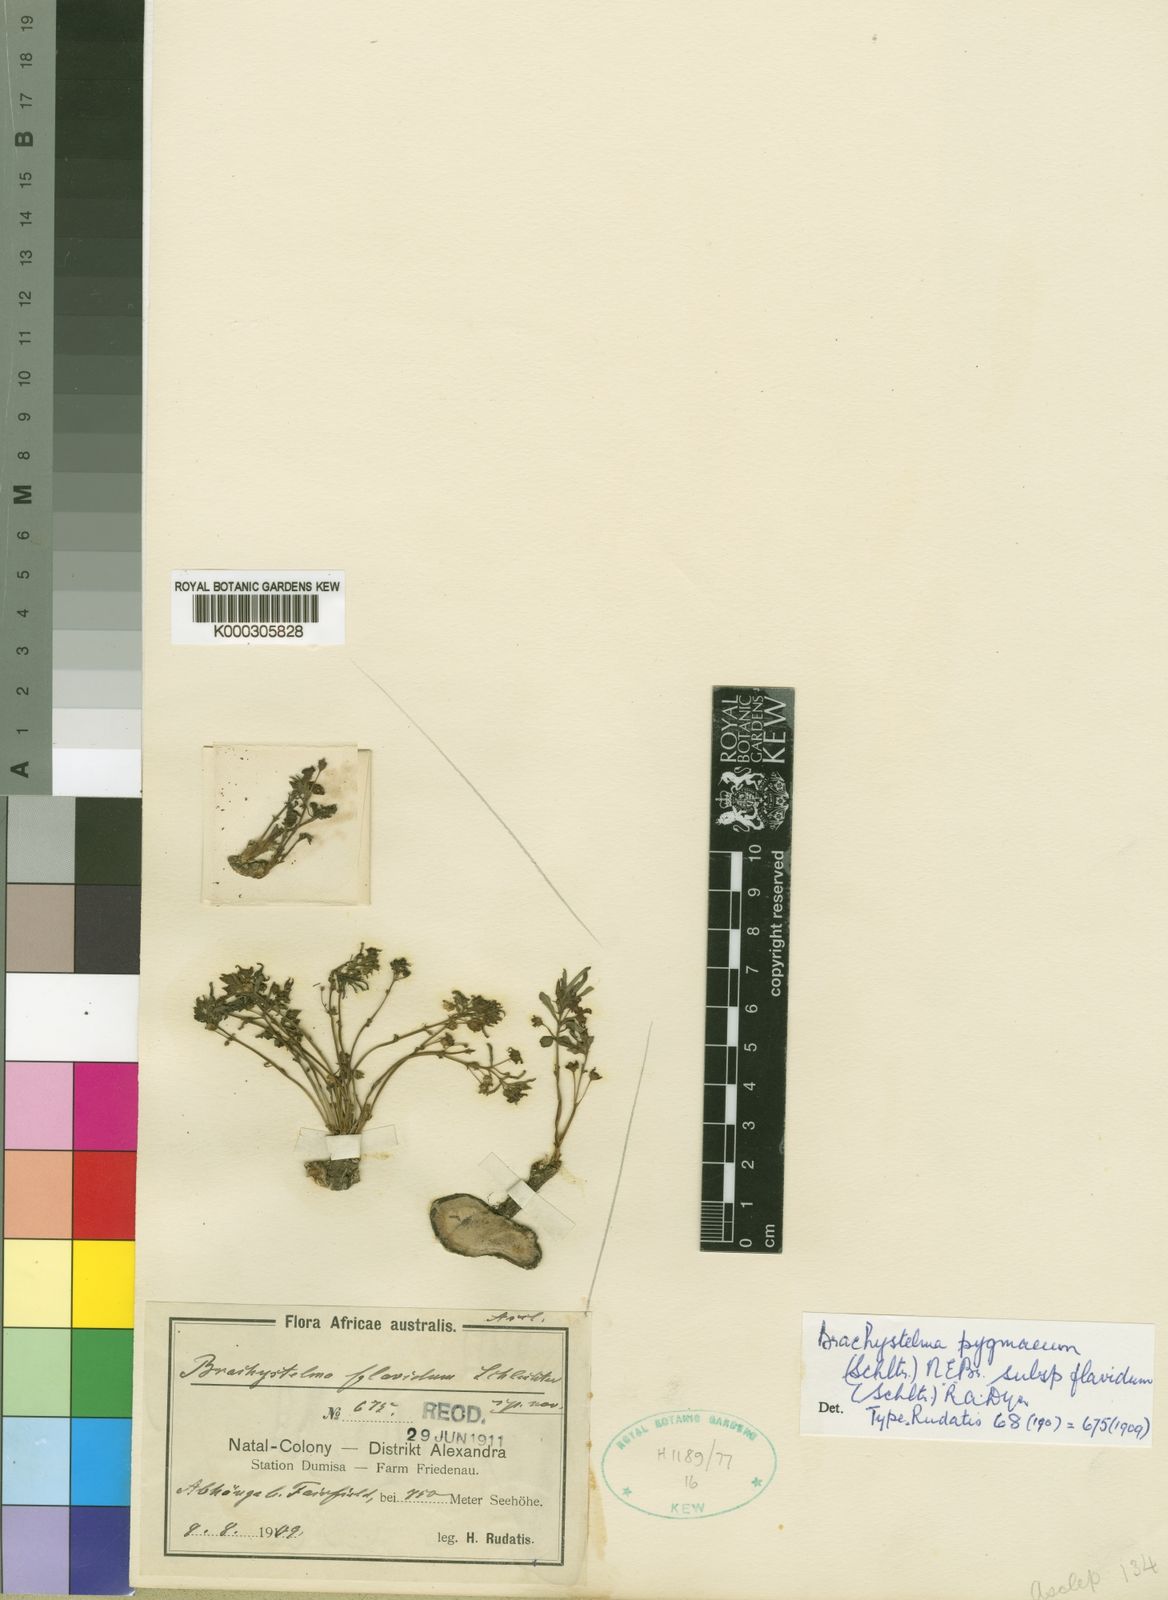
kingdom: Plantae
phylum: Tracheophyta
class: Magnoliopsida
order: Gentianales
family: Apocynaceae
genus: Ceropegia
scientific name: Ceropegia flavida
